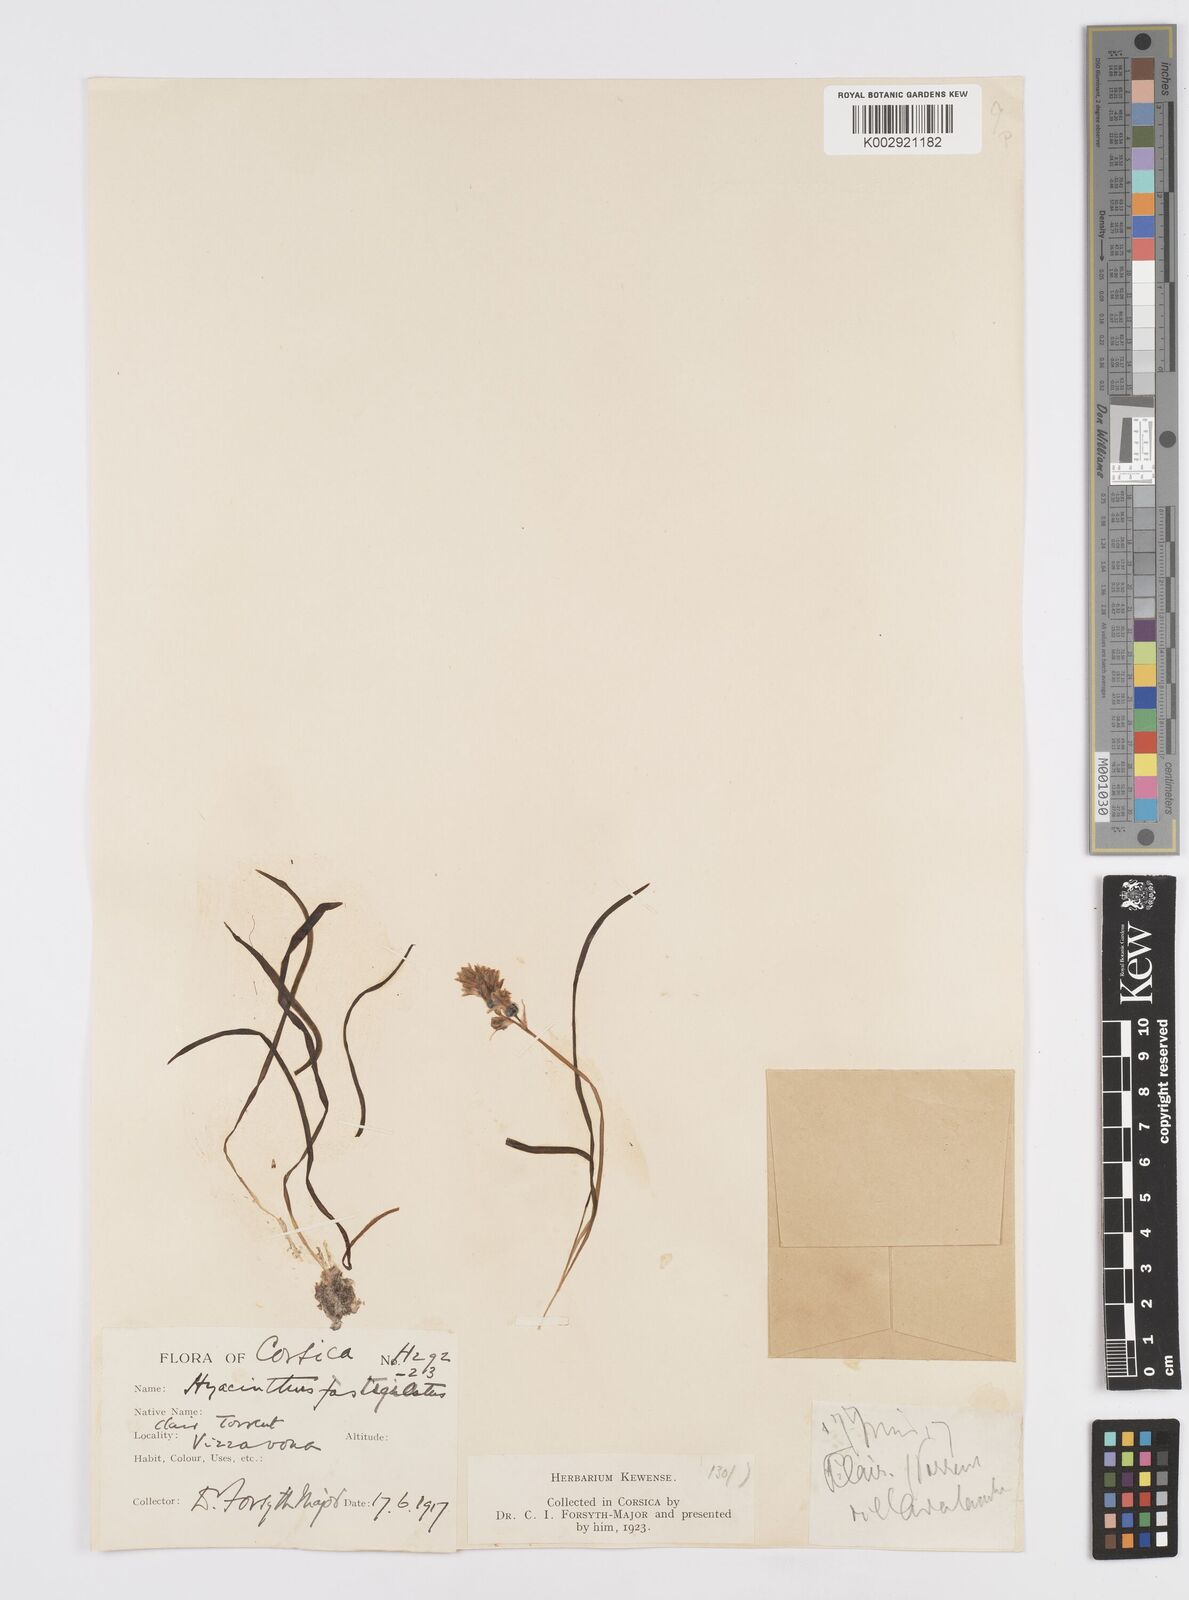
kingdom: Plantae
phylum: Tracheophyta
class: Liliopsida
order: Asparagales
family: Asparagaceae
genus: Brimeura
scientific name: Brimeura fastigiata
